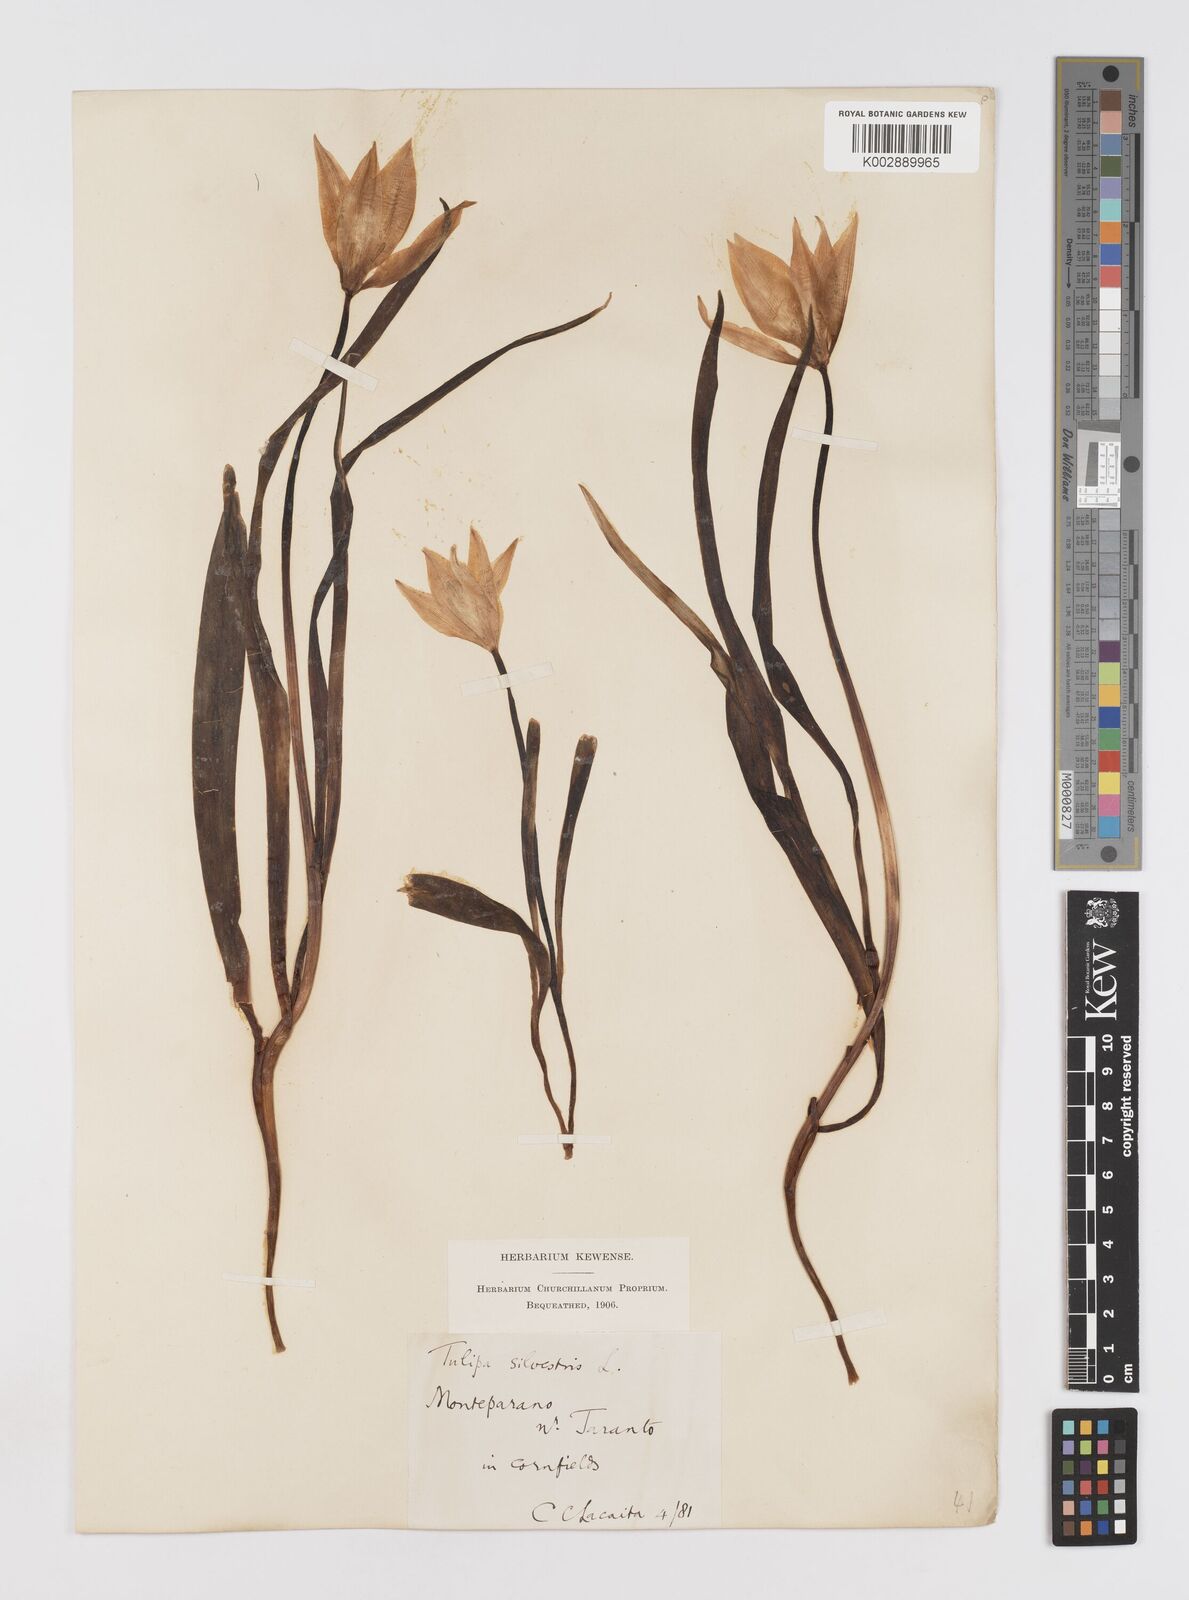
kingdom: Plantae
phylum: Tracheophyta
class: Liliopsida
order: Liliales
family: Liliaceae
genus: Tulipa
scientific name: Tulipa sylvestris
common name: Wild tulip
